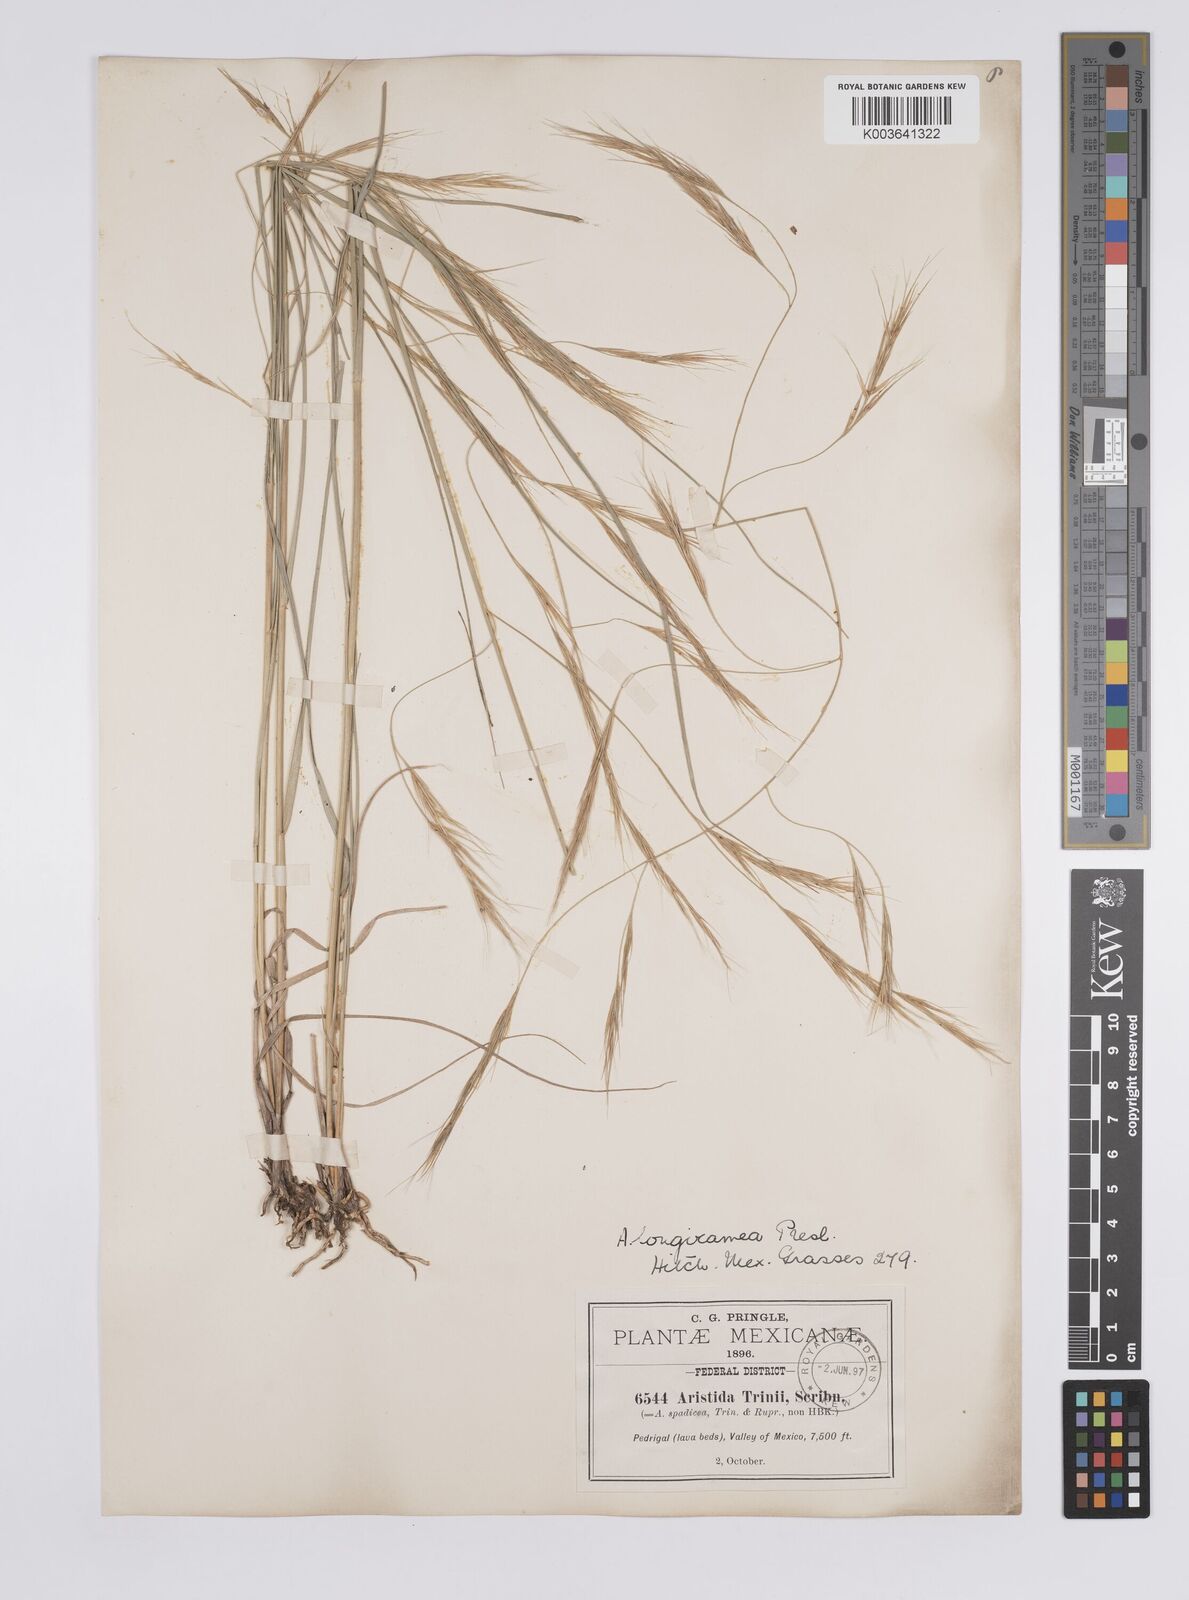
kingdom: Plantae
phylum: Tracheophyta
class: Liliopsida
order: Poales
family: Poaceae
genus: Aristida
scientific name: Aristida laxa
